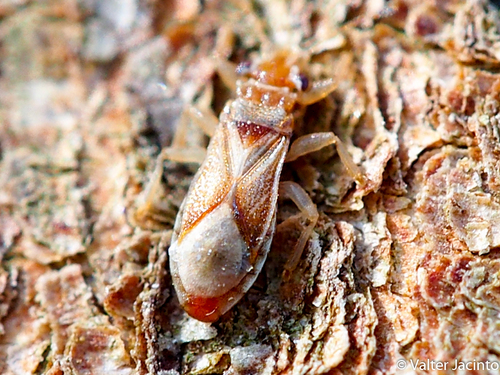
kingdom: Animalia
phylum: Arthropoda
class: Insecta
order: Hemiptera
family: Thaumastocoridae
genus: Thaumastocoris
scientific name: Thaumastocoris peregrinus
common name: Bronze bug
